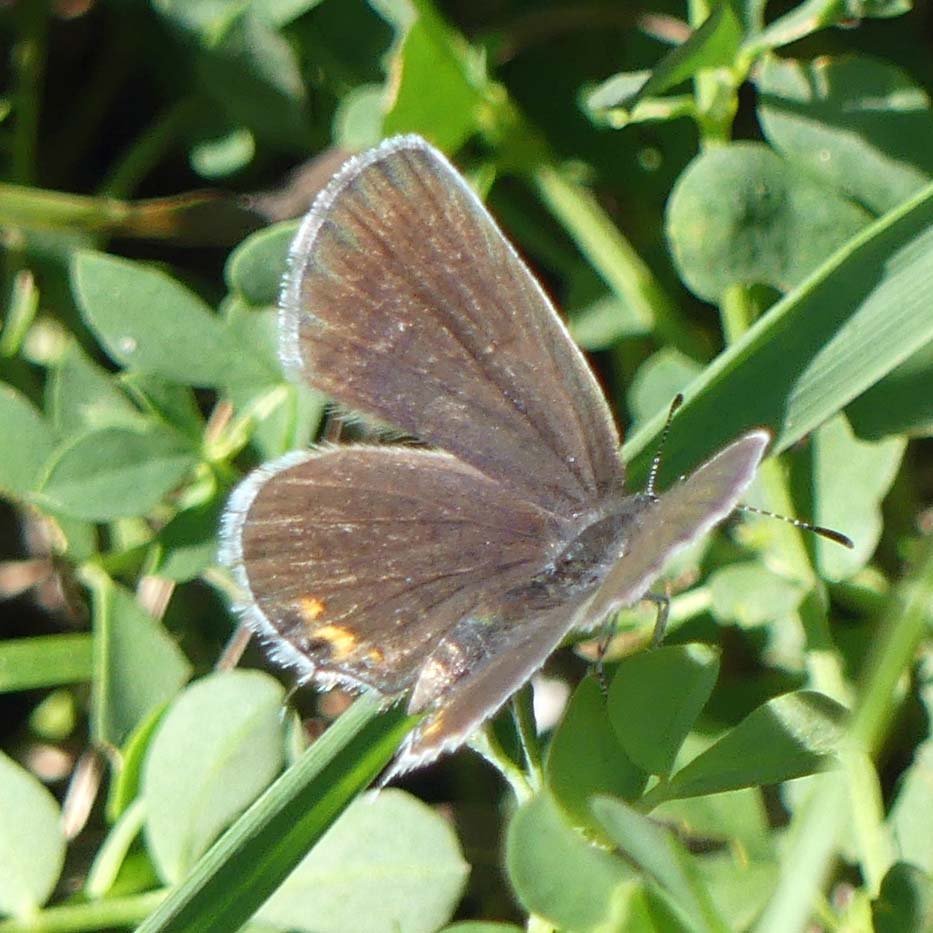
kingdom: Animalia
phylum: Arthropoda
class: Insecta
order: Lepidoptera
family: Lycaenidae
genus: Elkalyce
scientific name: Elkalyce comyntas
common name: Eastern Tailed-Blue
